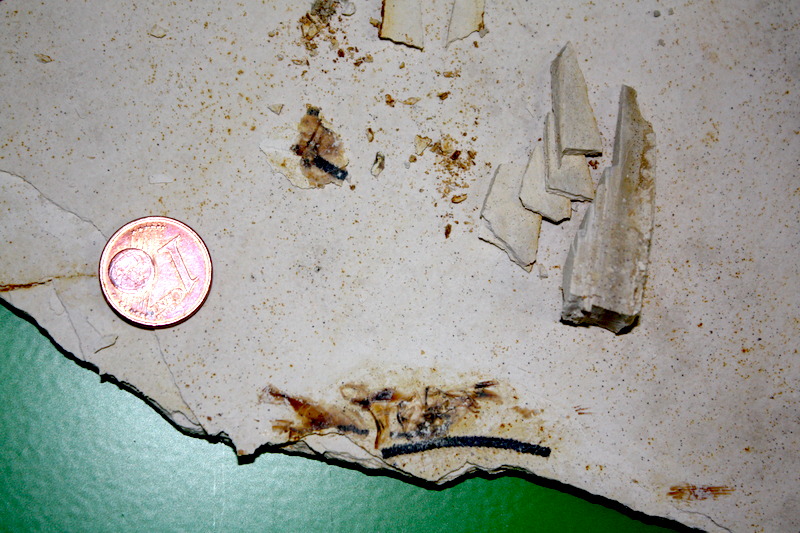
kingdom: Animalia
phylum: Chordata
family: Ascalaboidae
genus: Ebertichthys
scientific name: Ebertichthys ettlingensis
